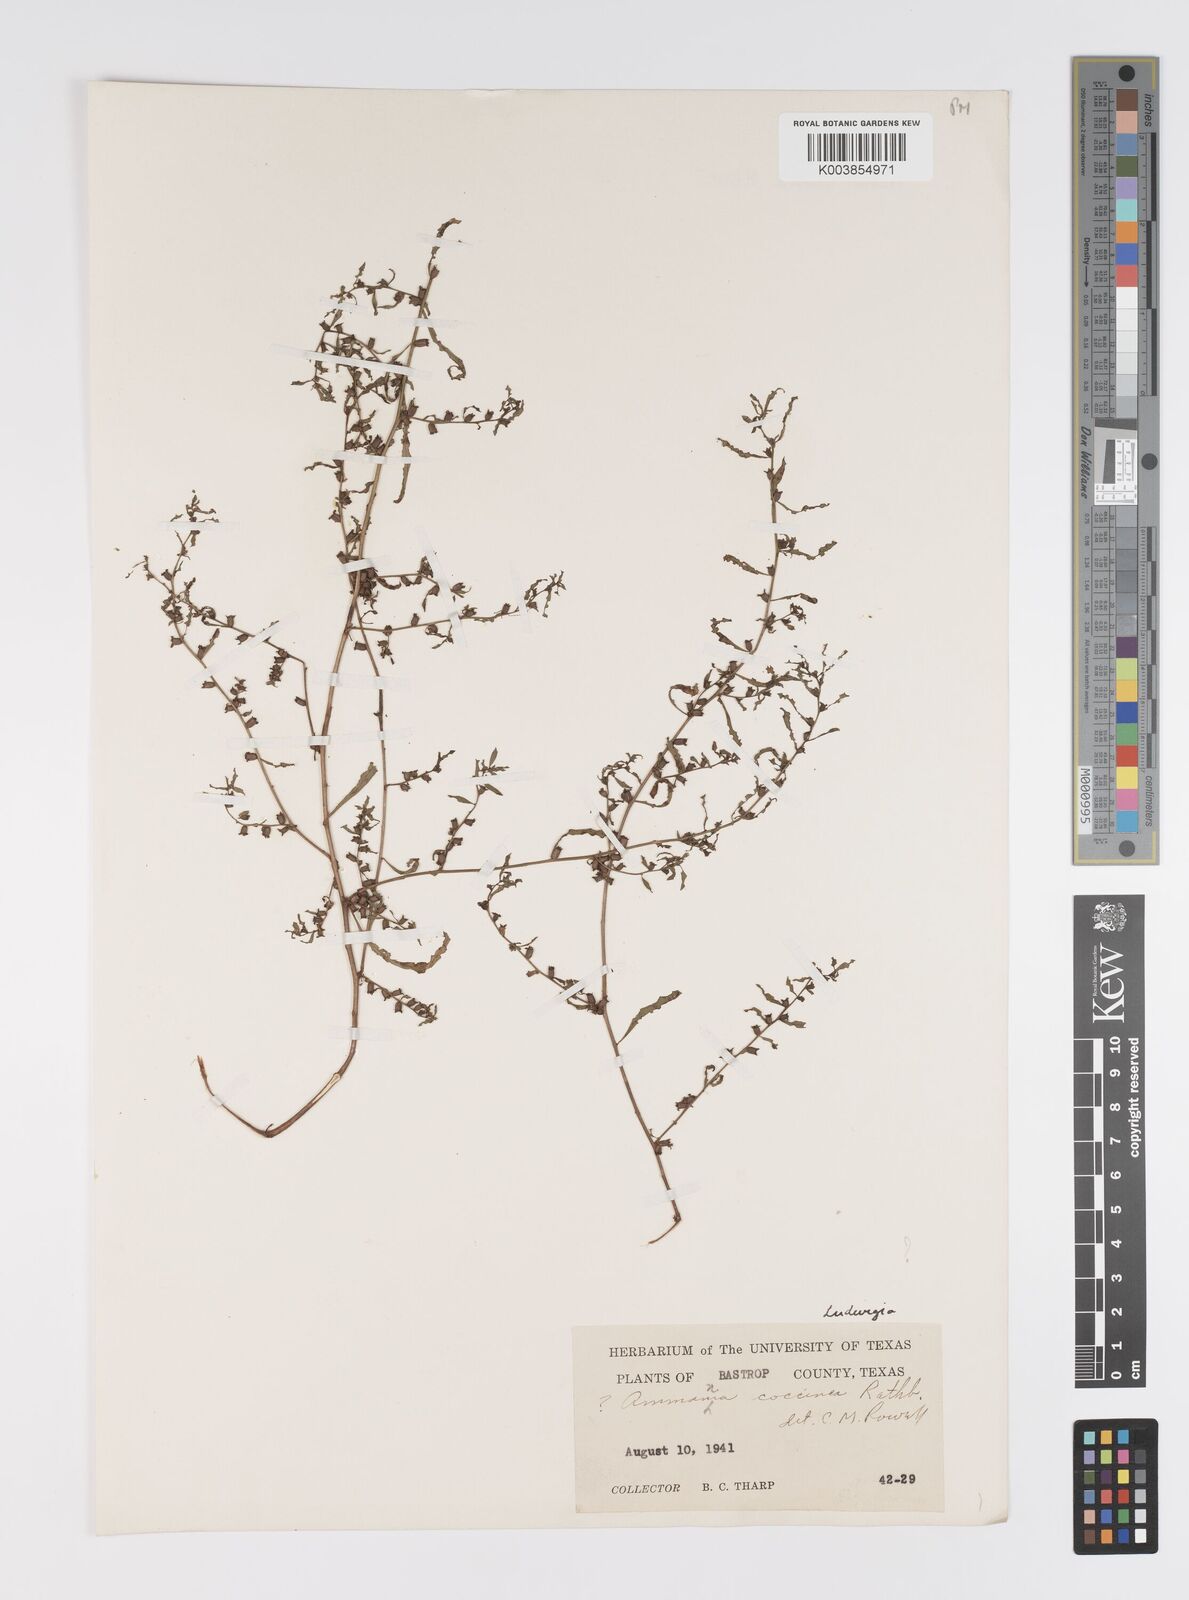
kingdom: Plantae
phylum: Tracheophyta
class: Magnoliopsida
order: Myrtales
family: Onagraceae
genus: Ludwigia
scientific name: Ludwigia
